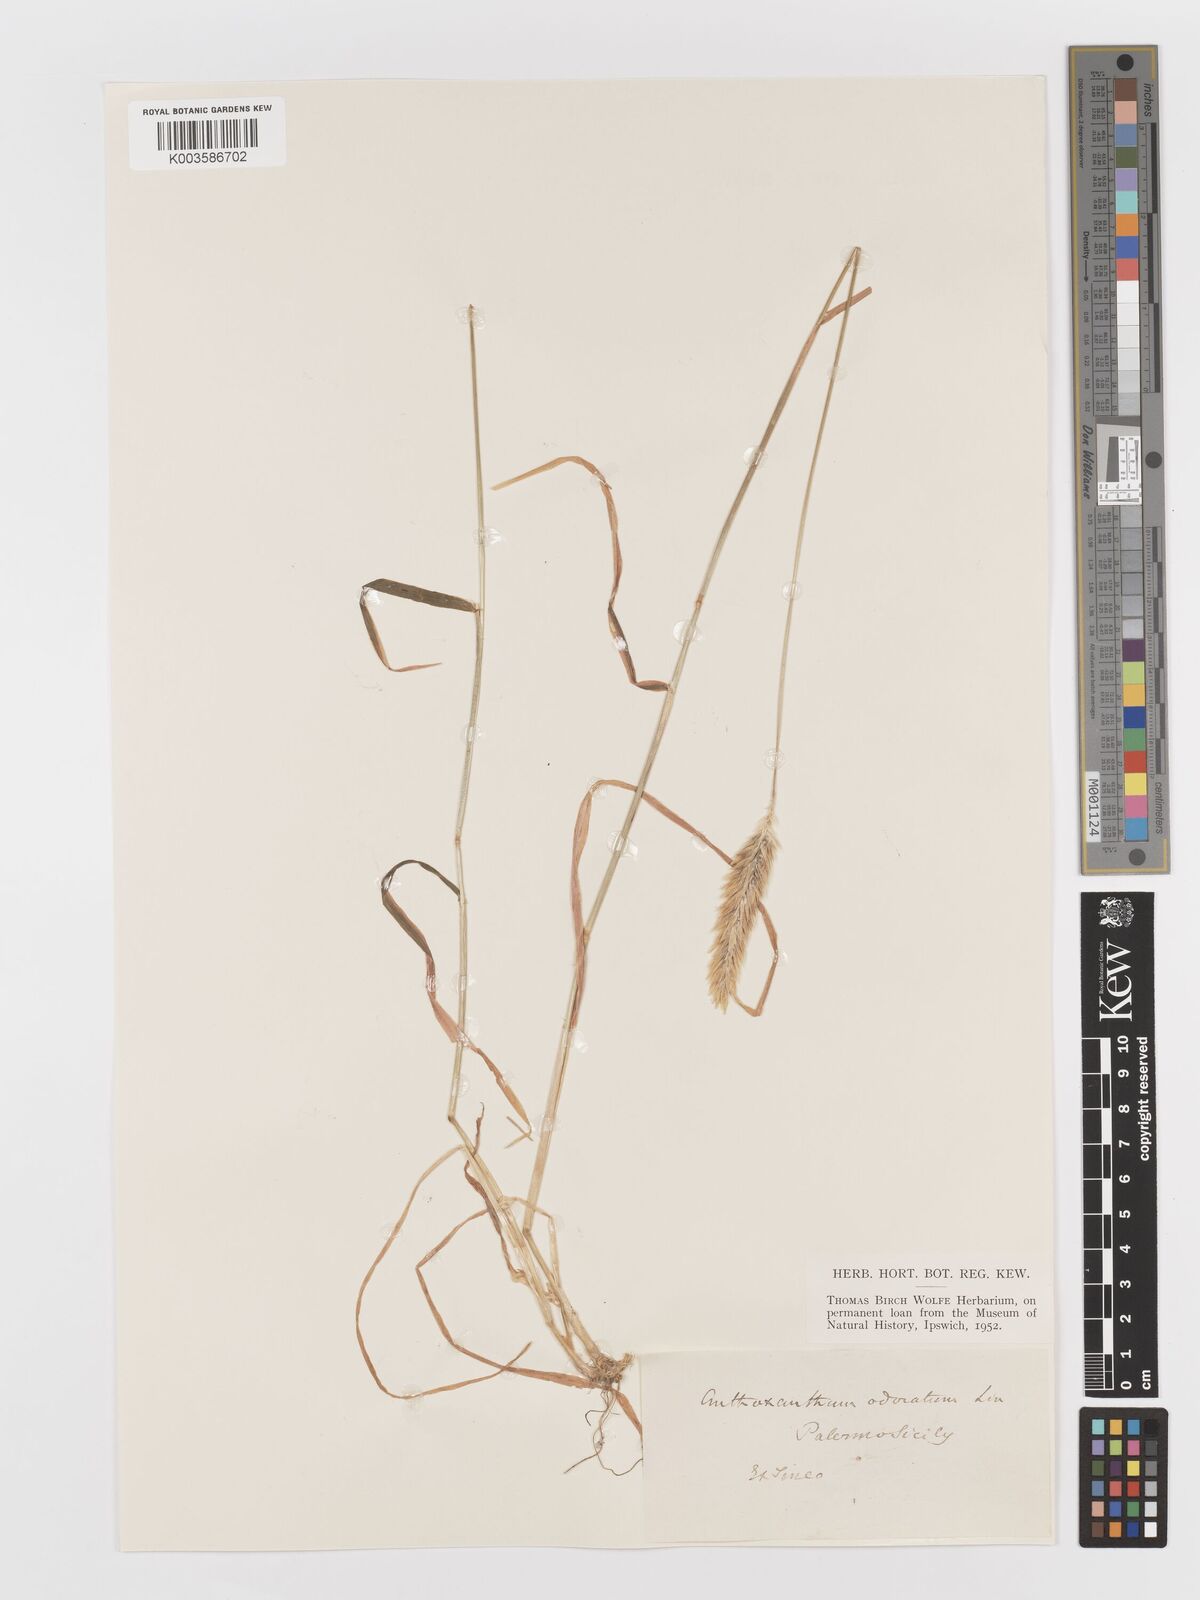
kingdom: Plantae
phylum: Tracheophyta
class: Liliopsida
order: Poales
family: Poaceae
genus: Anthoxanthum
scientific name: Anthoxanthum odoratum
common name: Sweet vernalgrass
